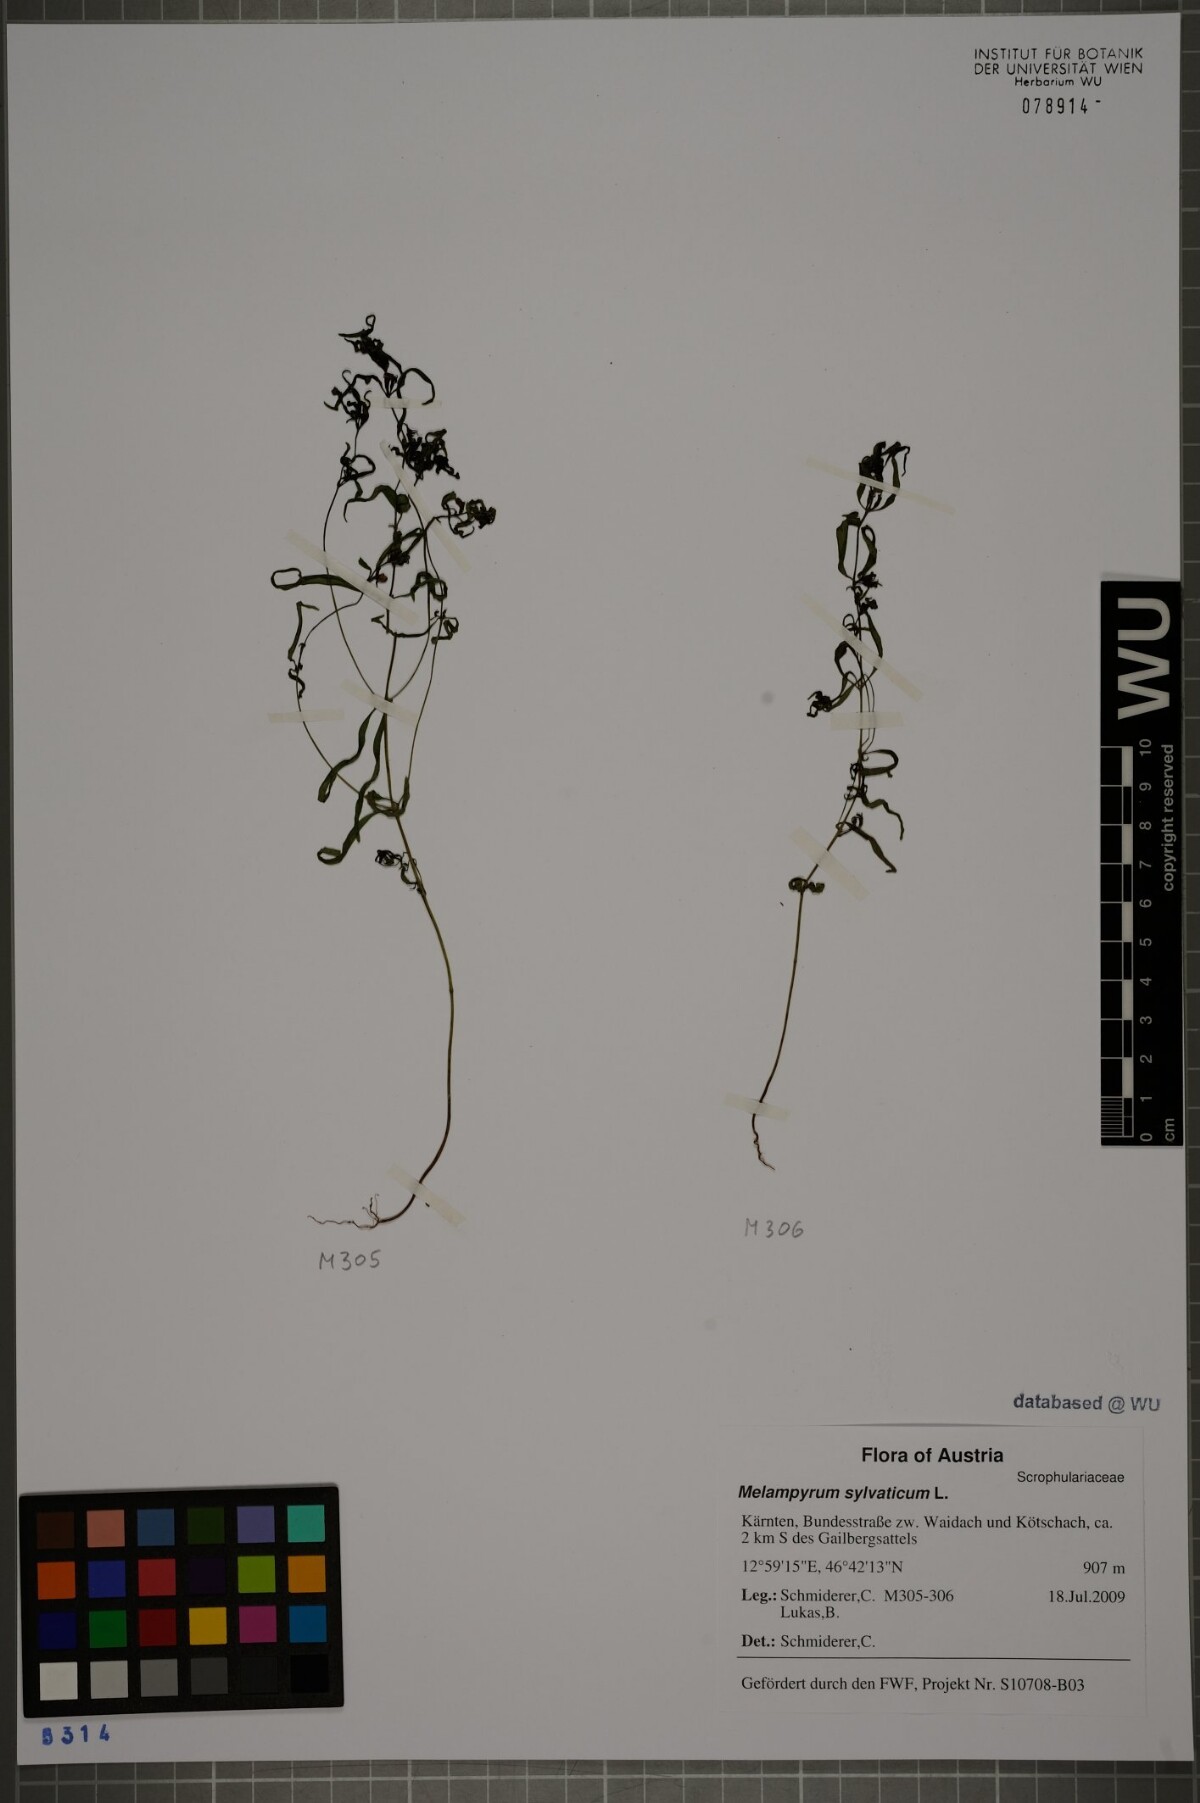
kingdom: Plantae
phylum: Tracheophyta
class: Magnoliopsida
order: Lamiales
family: Orobanchaceae
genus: Melampyrum
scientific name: Melampyrum sylvaticum
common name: Small cow-wheat
